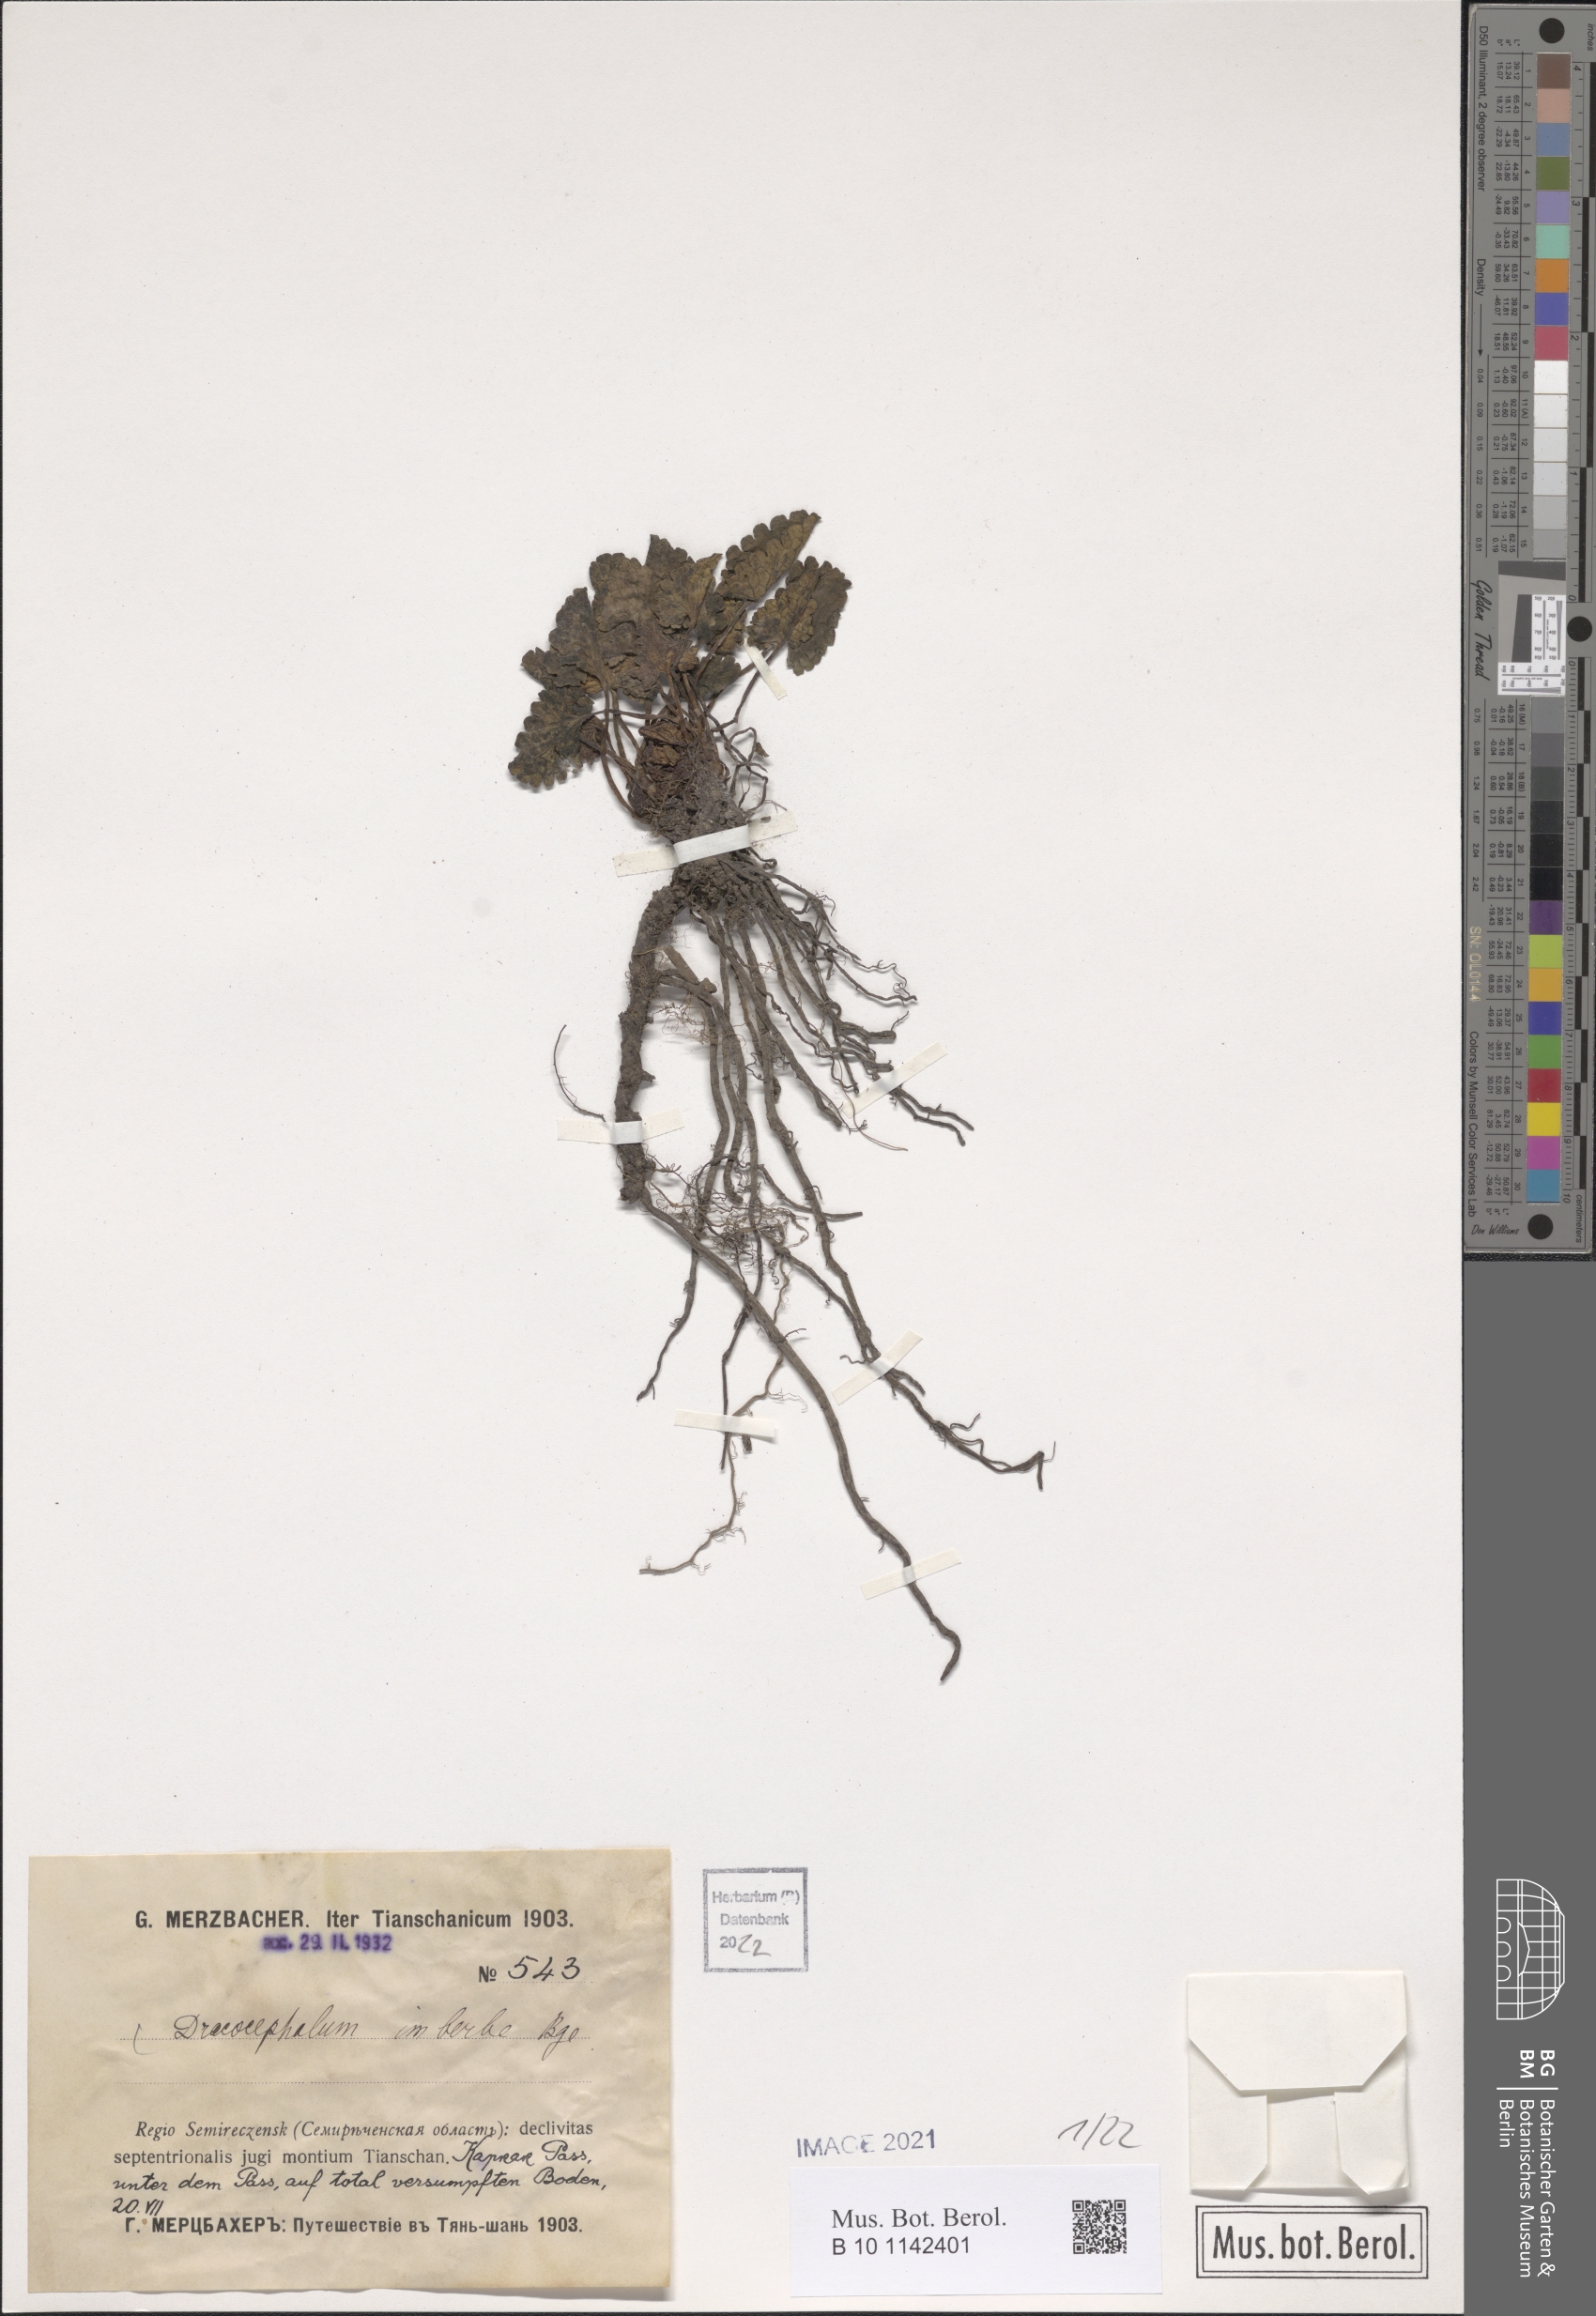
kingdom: Plantae
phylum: Tracheophyta
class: Magnoliopsida
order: Lamiales
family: Lamiaceae
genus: Dracocephalum
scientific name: Dracocephalum imberbe
